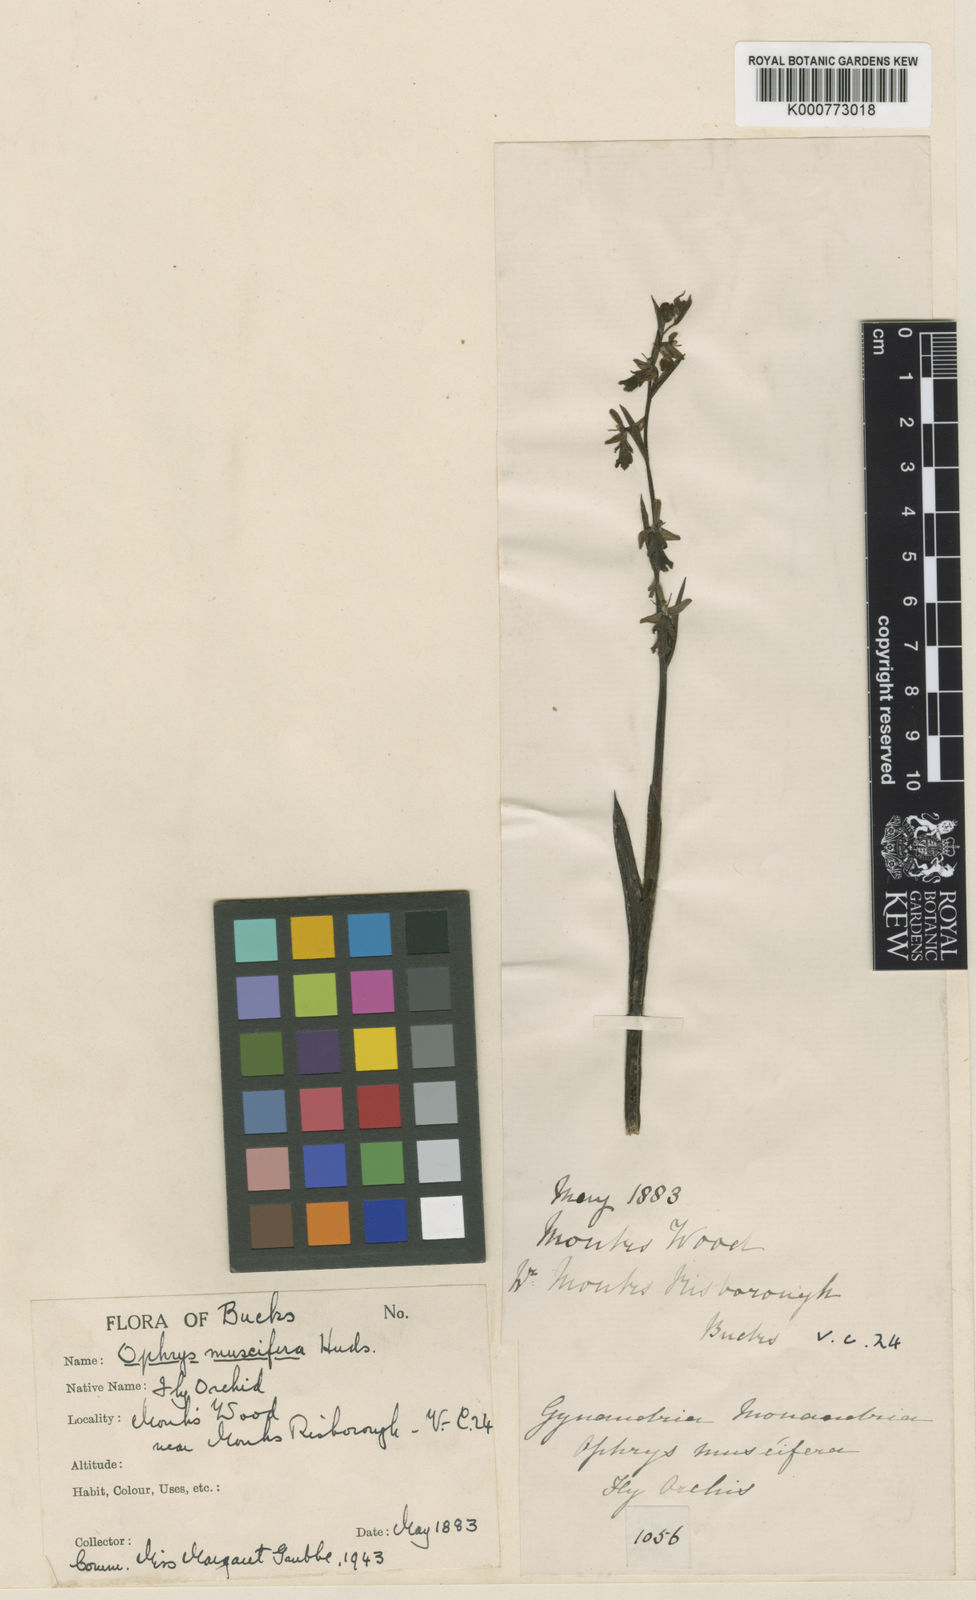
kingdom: Plantae
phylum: Tracheophyta
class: Liliopsida
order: Asparagales
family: Orchidaceae
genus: Ophrys
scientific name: Ophrys insectifera
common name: Fly orchid
